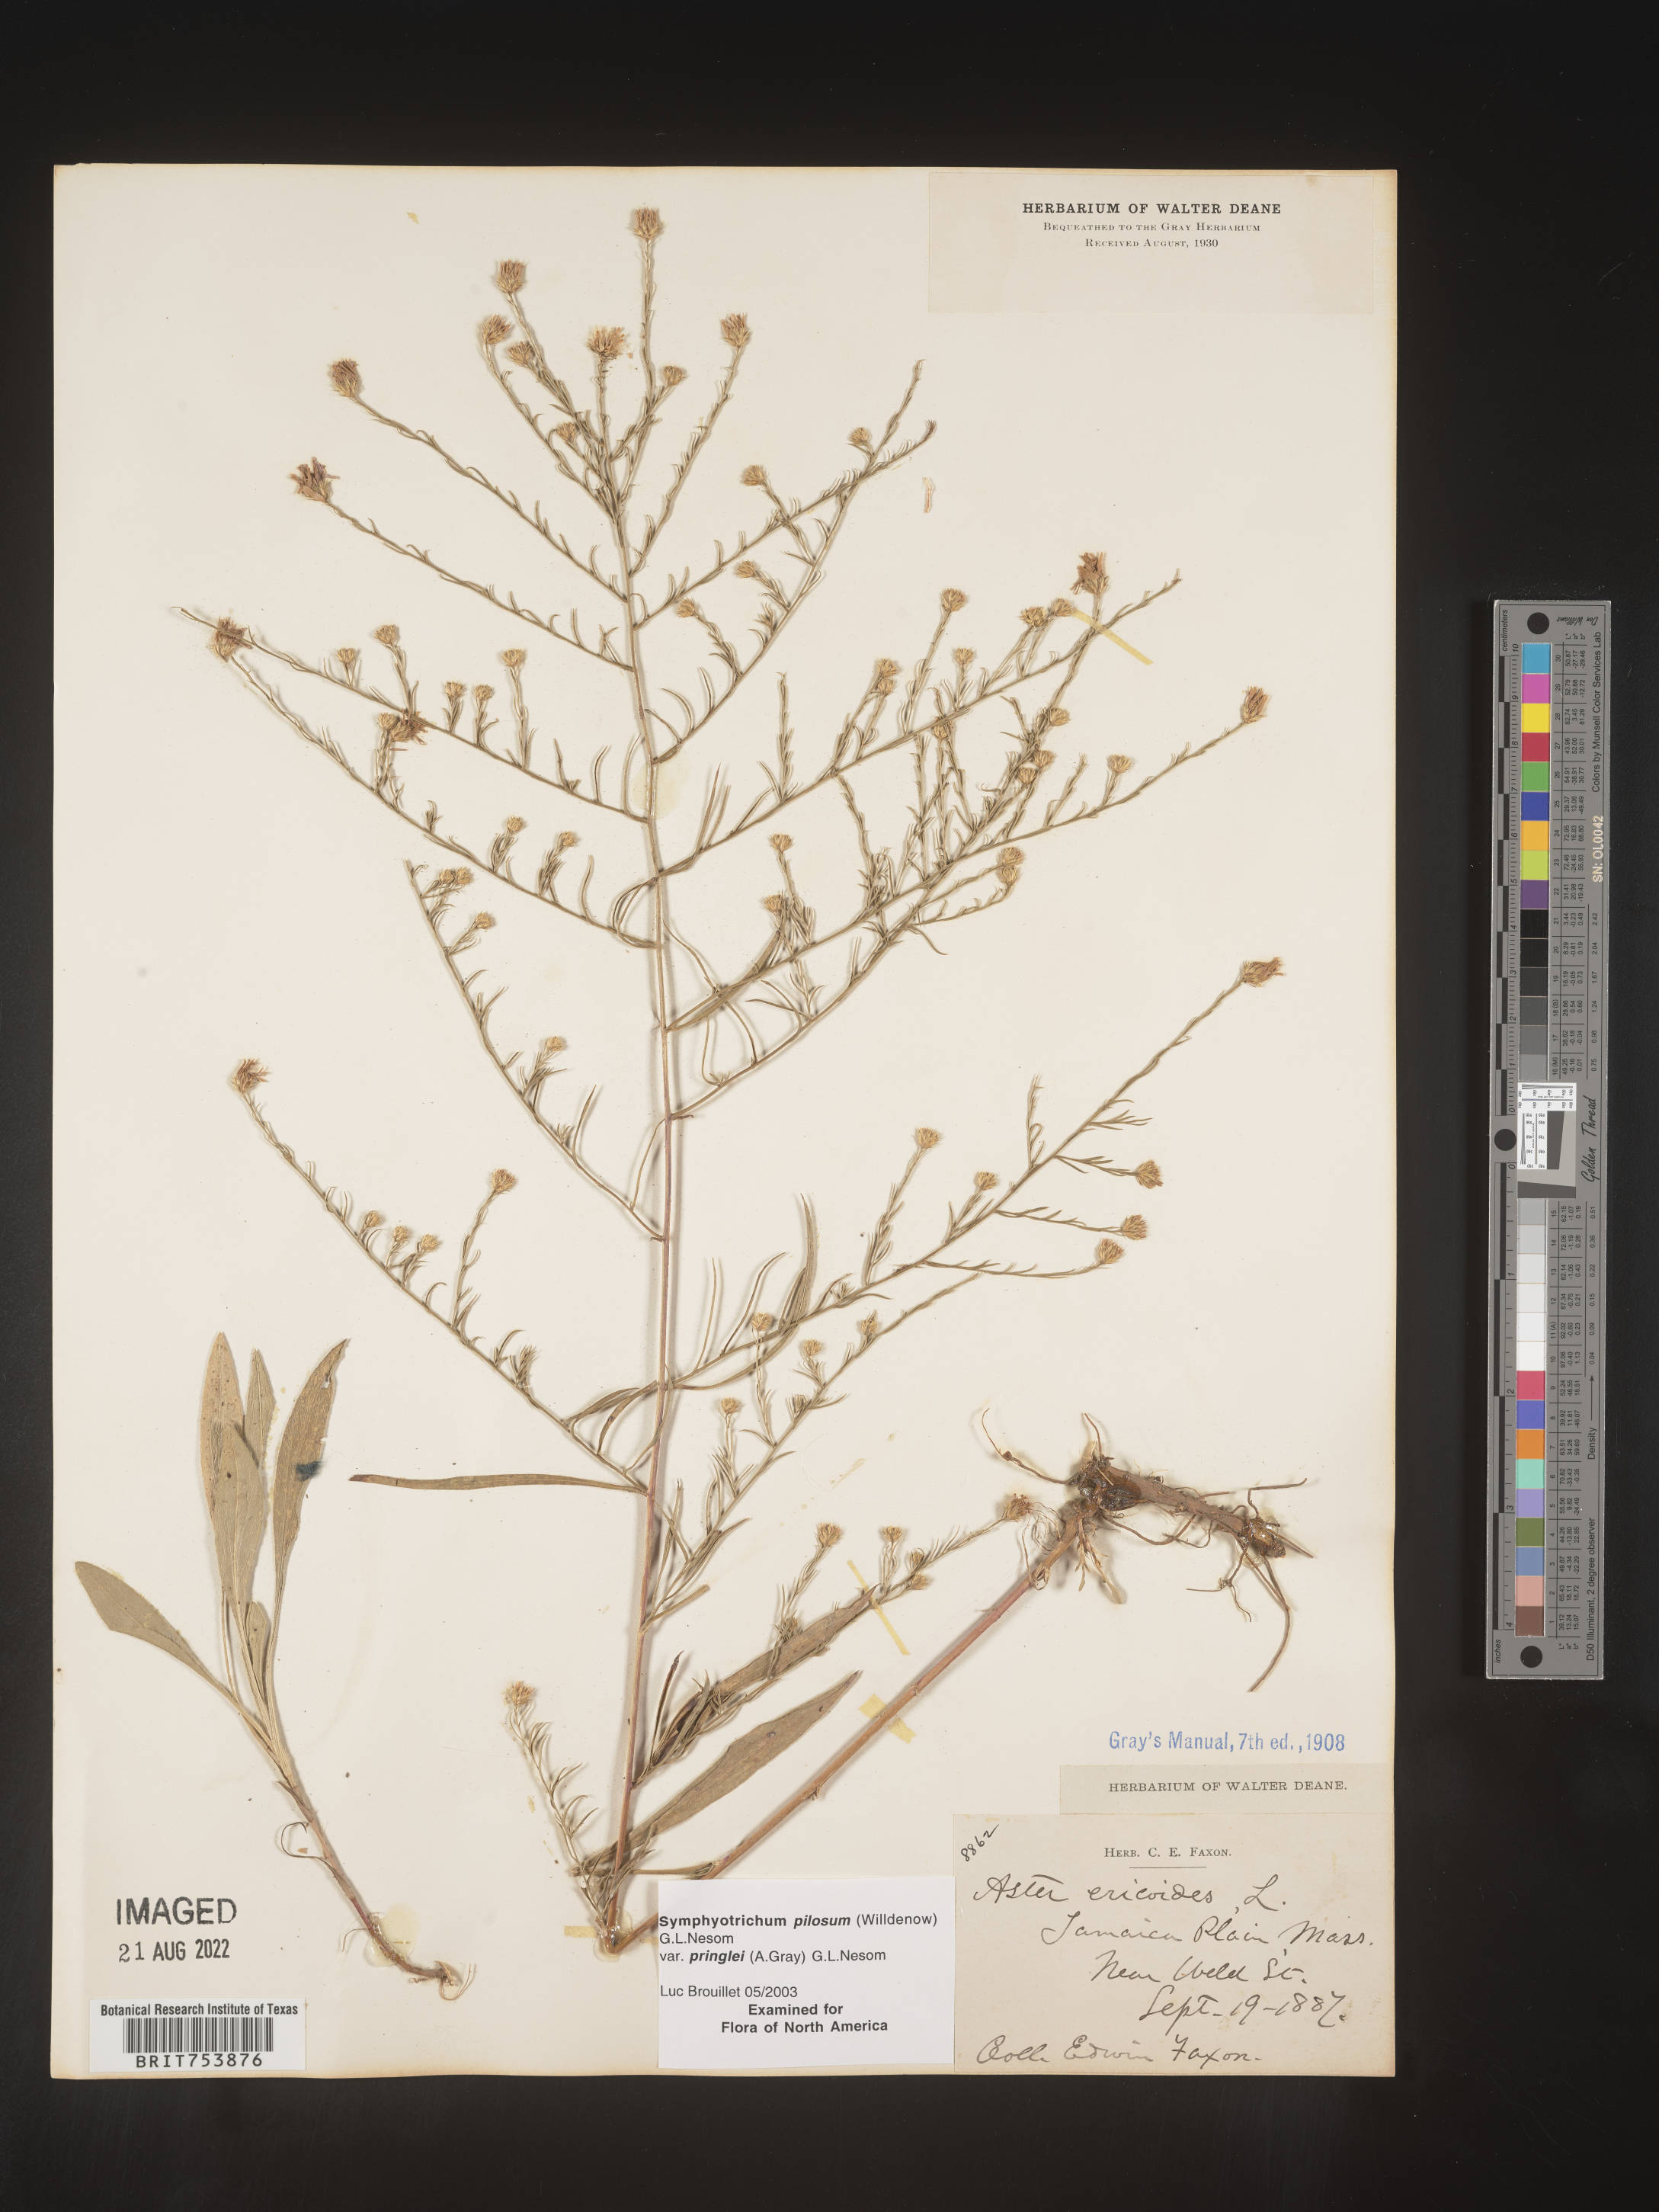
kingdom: Plantae
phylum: Tracheophyta
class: Magnoliopsida
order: Asterales
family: Asteraceae
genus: Symphyotrichum
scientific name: Symphyotrichum pilosum
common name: Awl aster
